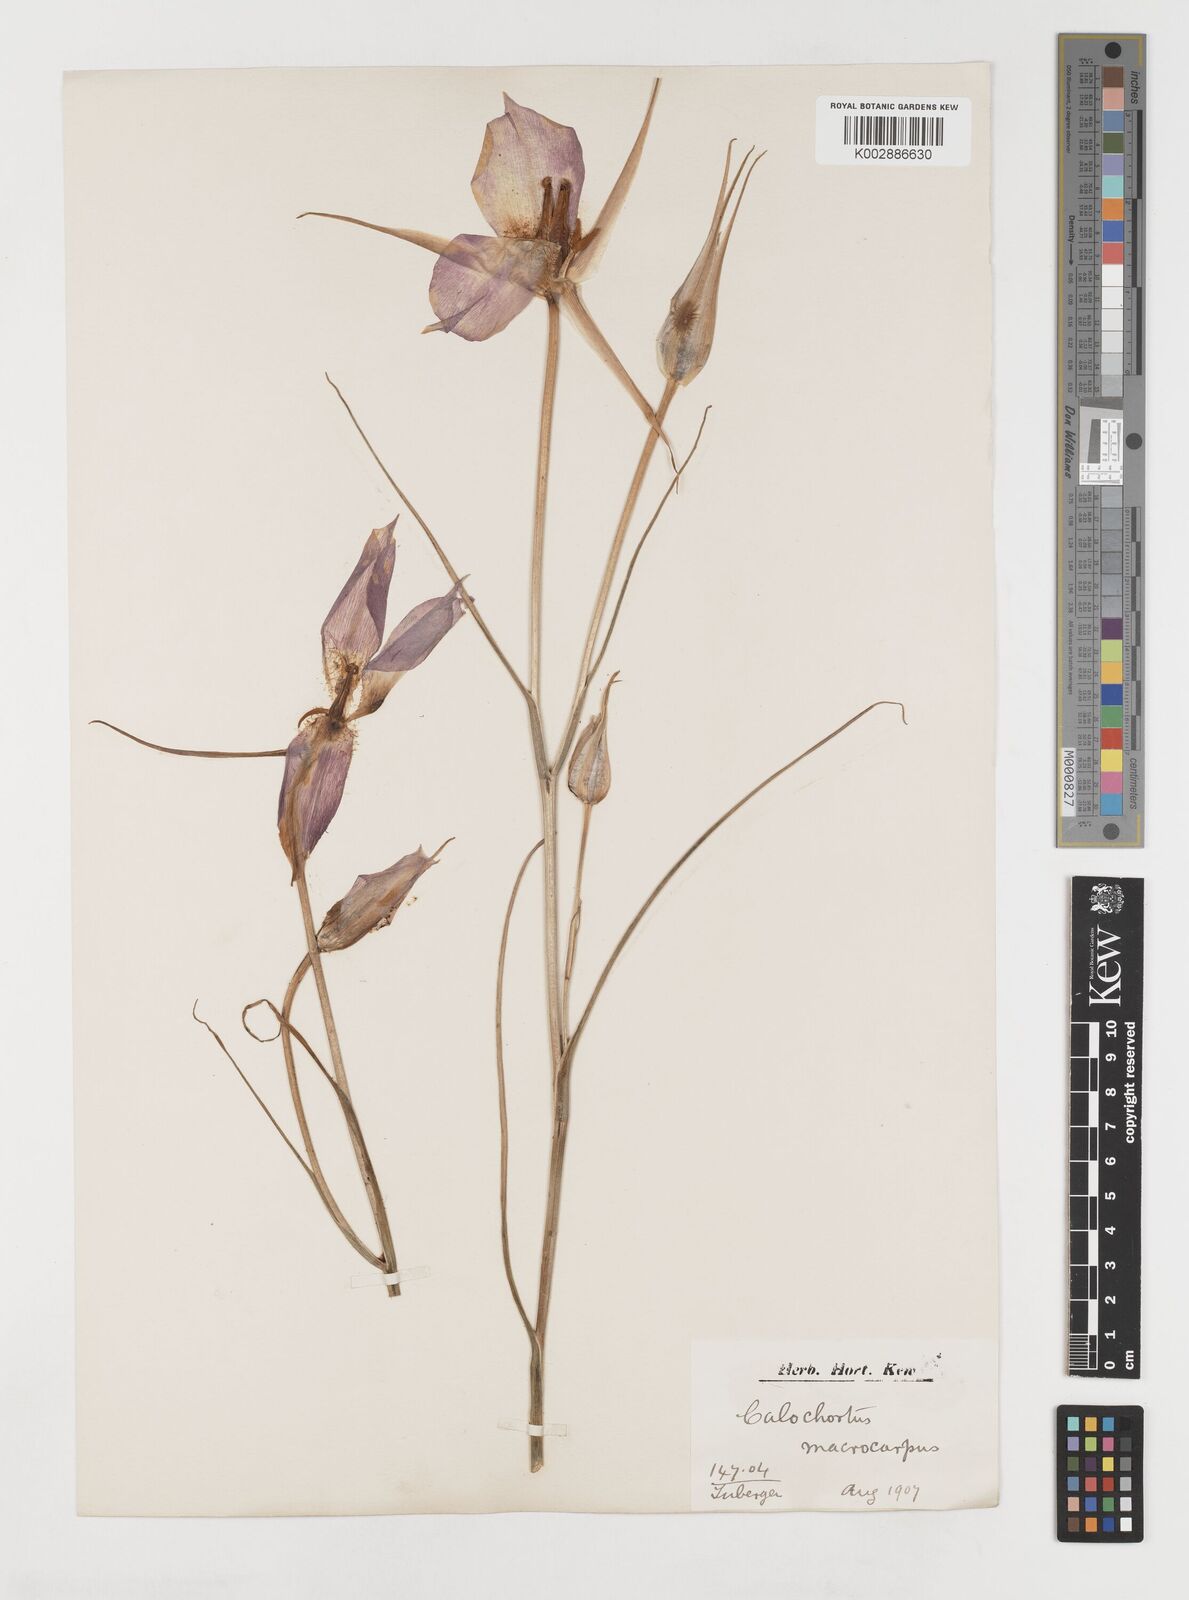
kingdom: Plantae
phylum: Tracheophyta
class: Liliopsida
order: Liliales
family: Liliaceae
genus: Calochortus
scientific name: Calochortus macrocarpus
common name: Green-band mariposa lily
